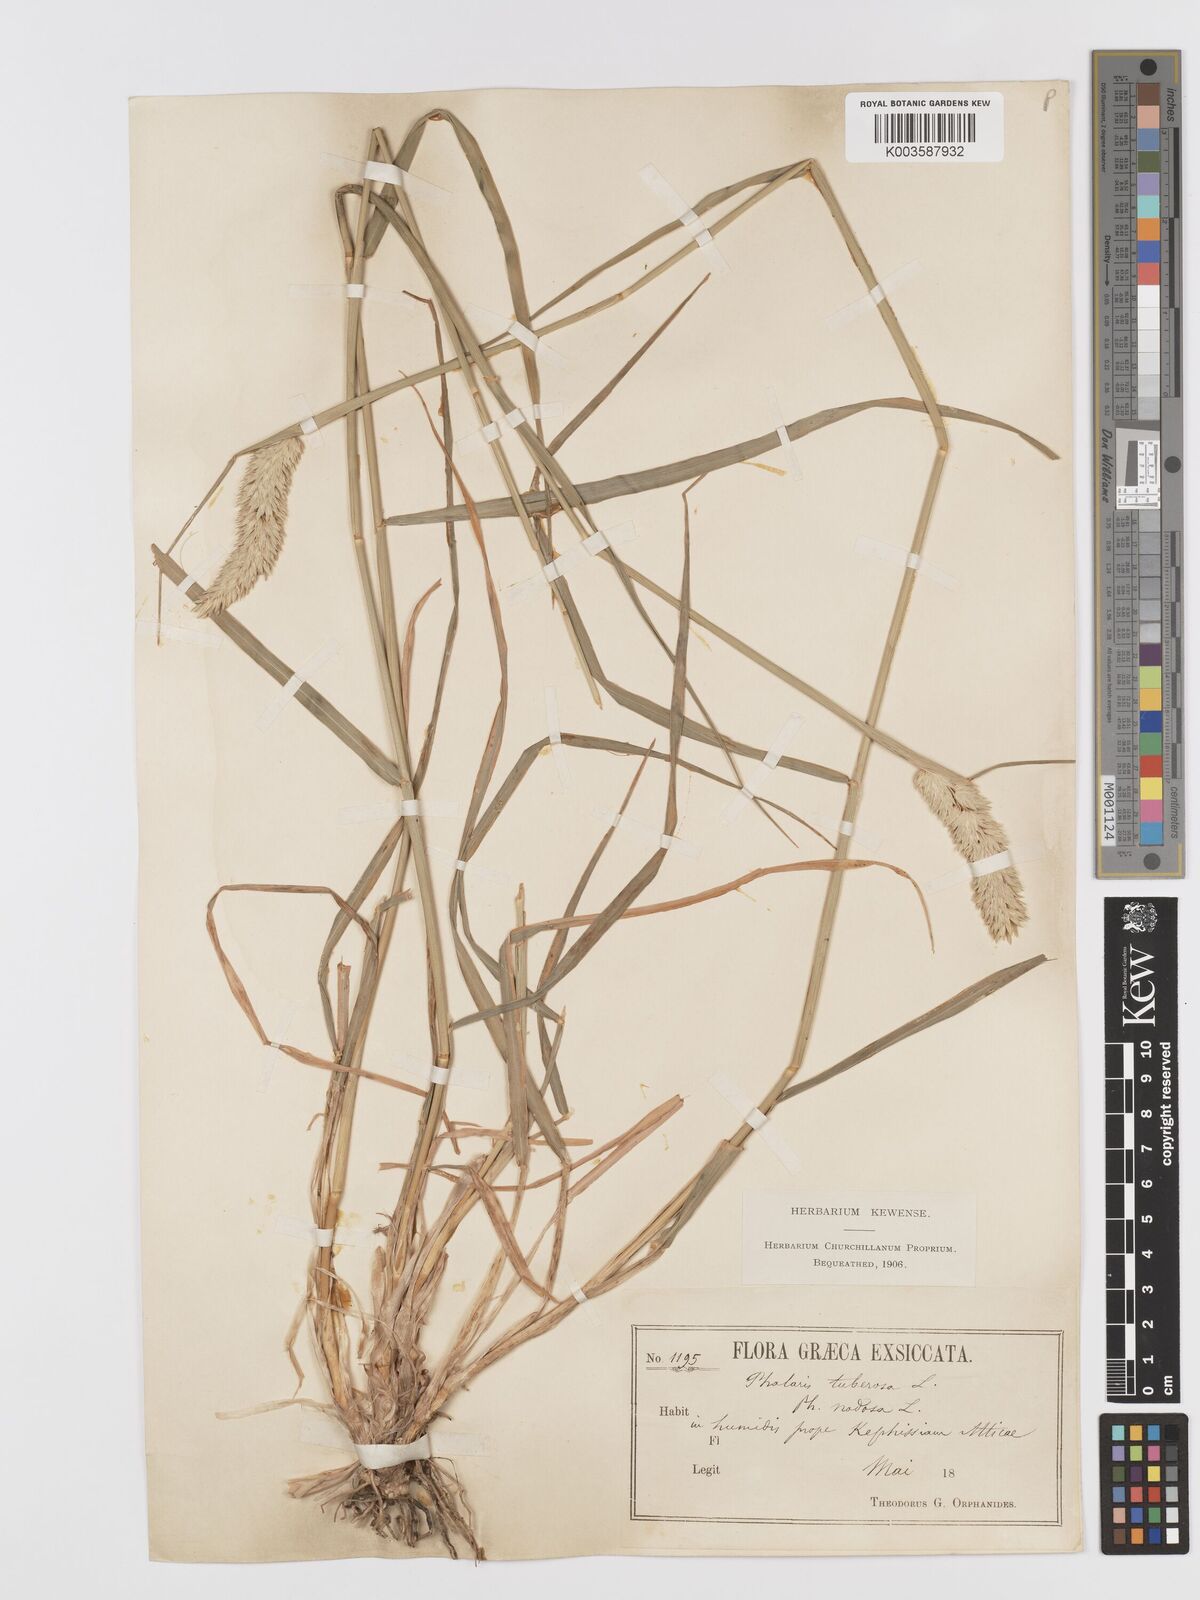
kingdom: Plantae
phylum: Tracheophyta
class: Liliopsida
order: Poales
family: Poaceae
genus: Phalaris
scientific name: Phalaris
